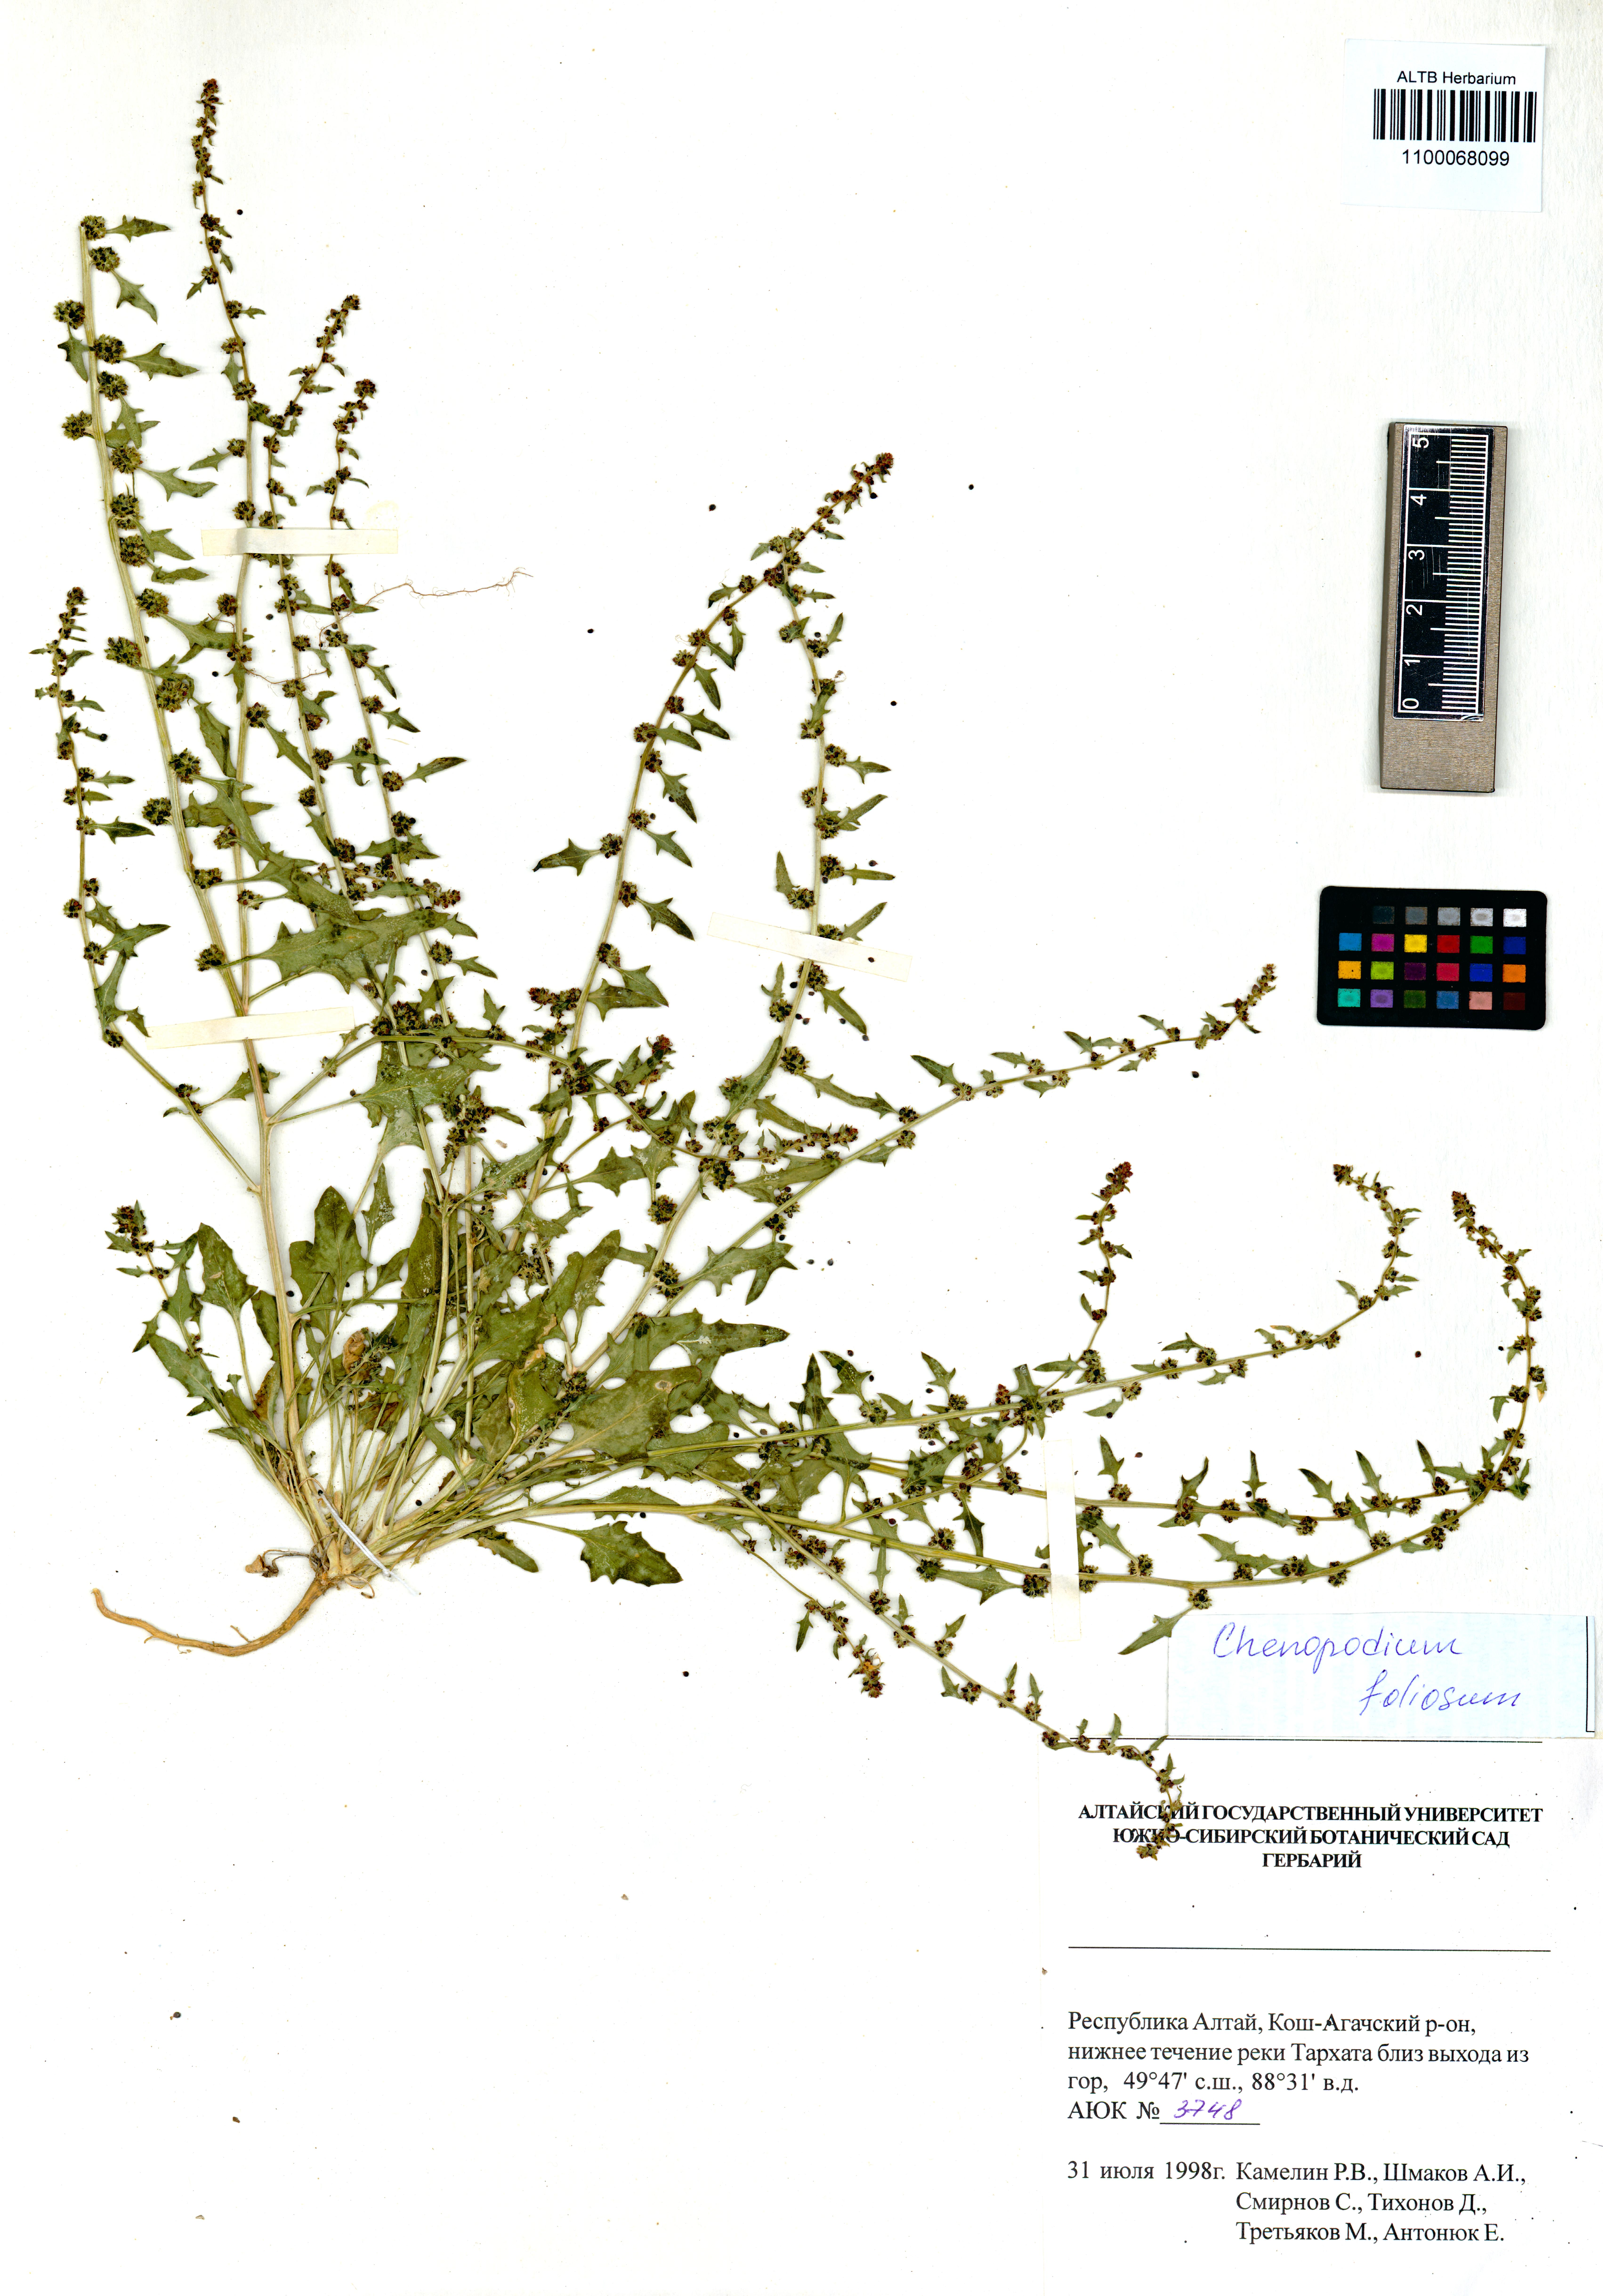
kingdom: Plantae
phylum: Tracheophyta
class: Magnoliopsida
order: Caryophyllales
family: Amaranthaceae
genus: Blitum
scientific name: Blitum virgatum
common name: Strawberry goosefoot
